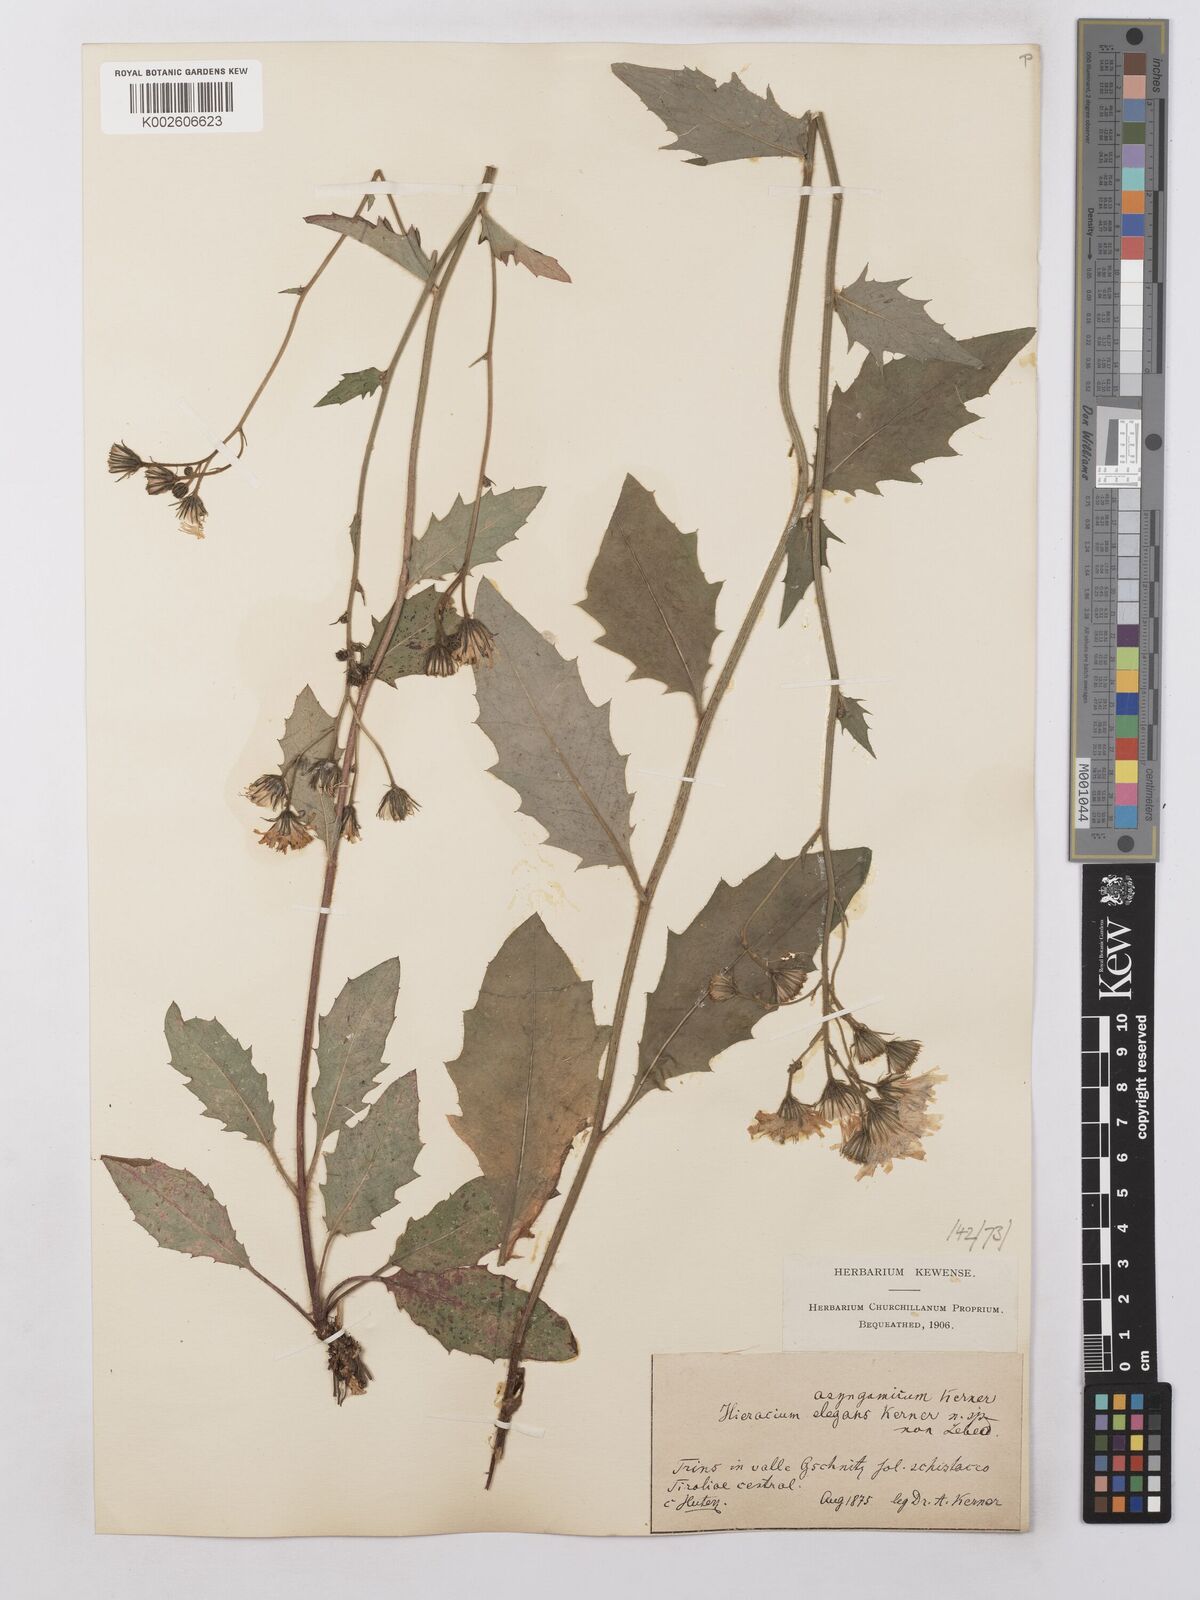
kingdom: Plantae
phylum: Tracheophyta
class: Magnoliopsida
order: Asterales
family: Asteraceae
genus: Hieracium
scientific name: Hieracium lachenalii
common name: Common hawkweed
